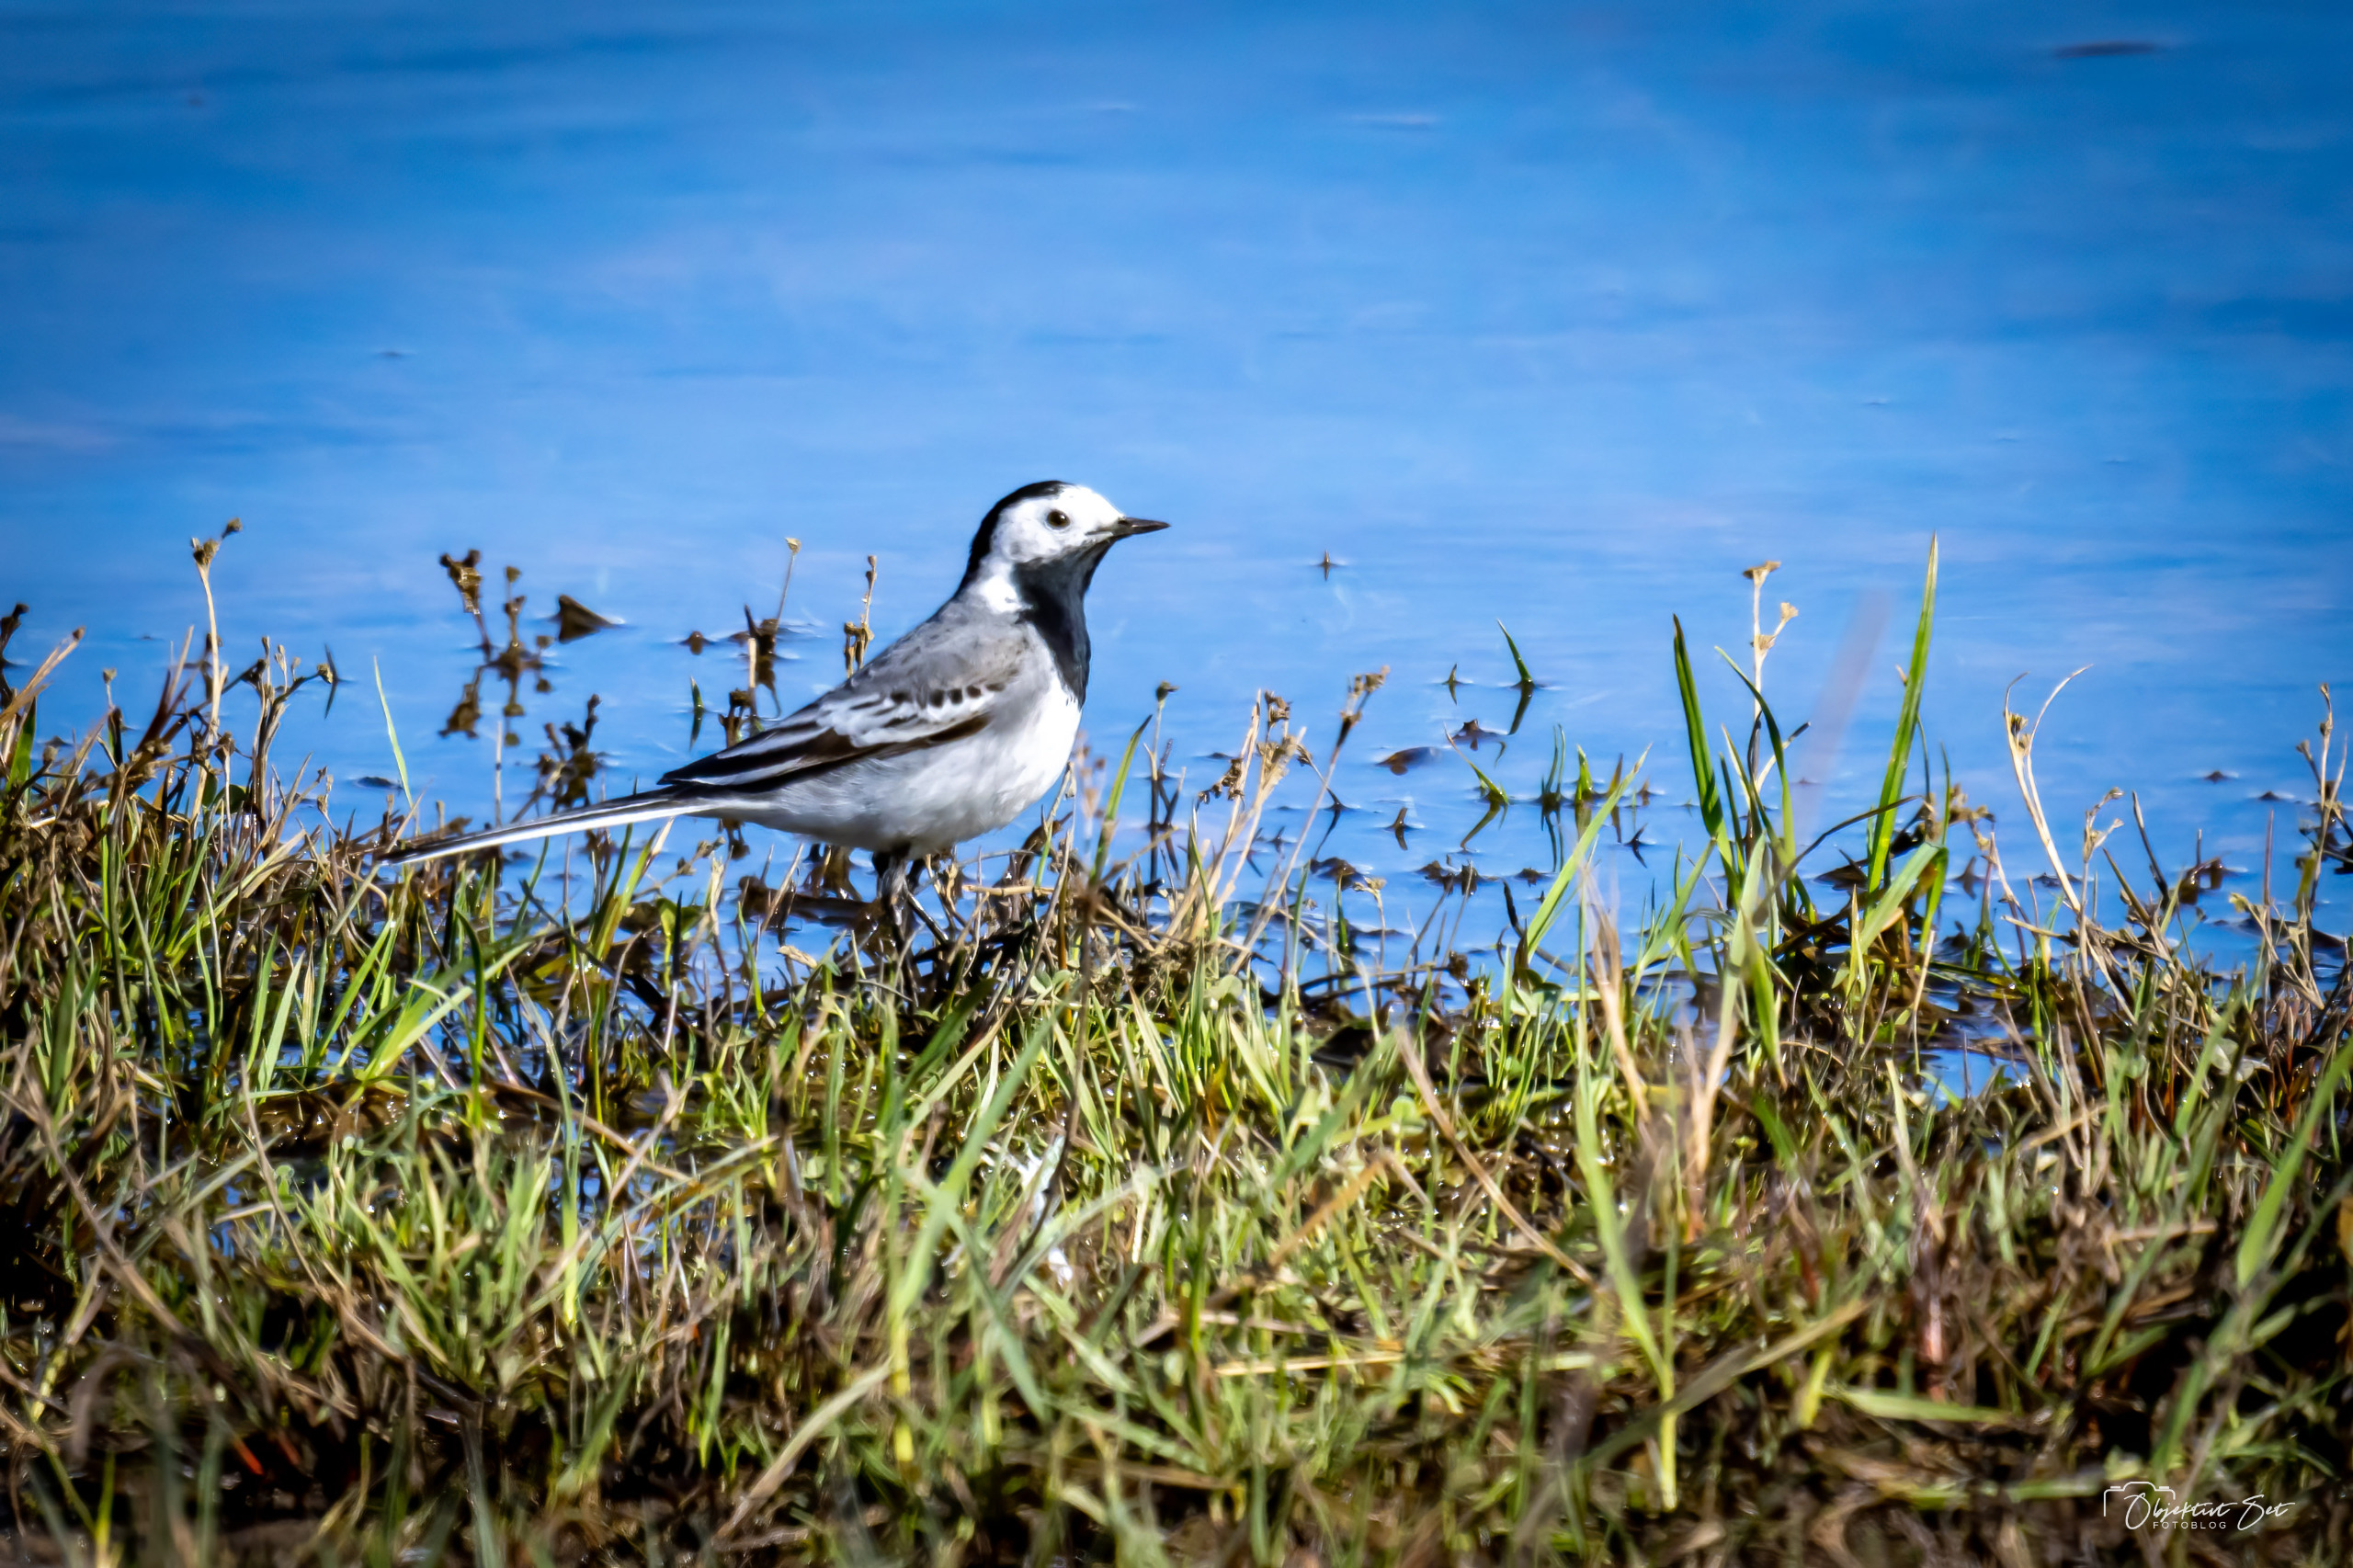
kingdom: Animalia
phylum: Chordata
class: Aves
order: Passeriformes
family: Motacillidae
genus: Motacilla
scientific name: Motacilla alba
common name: Hvid vipstjert
